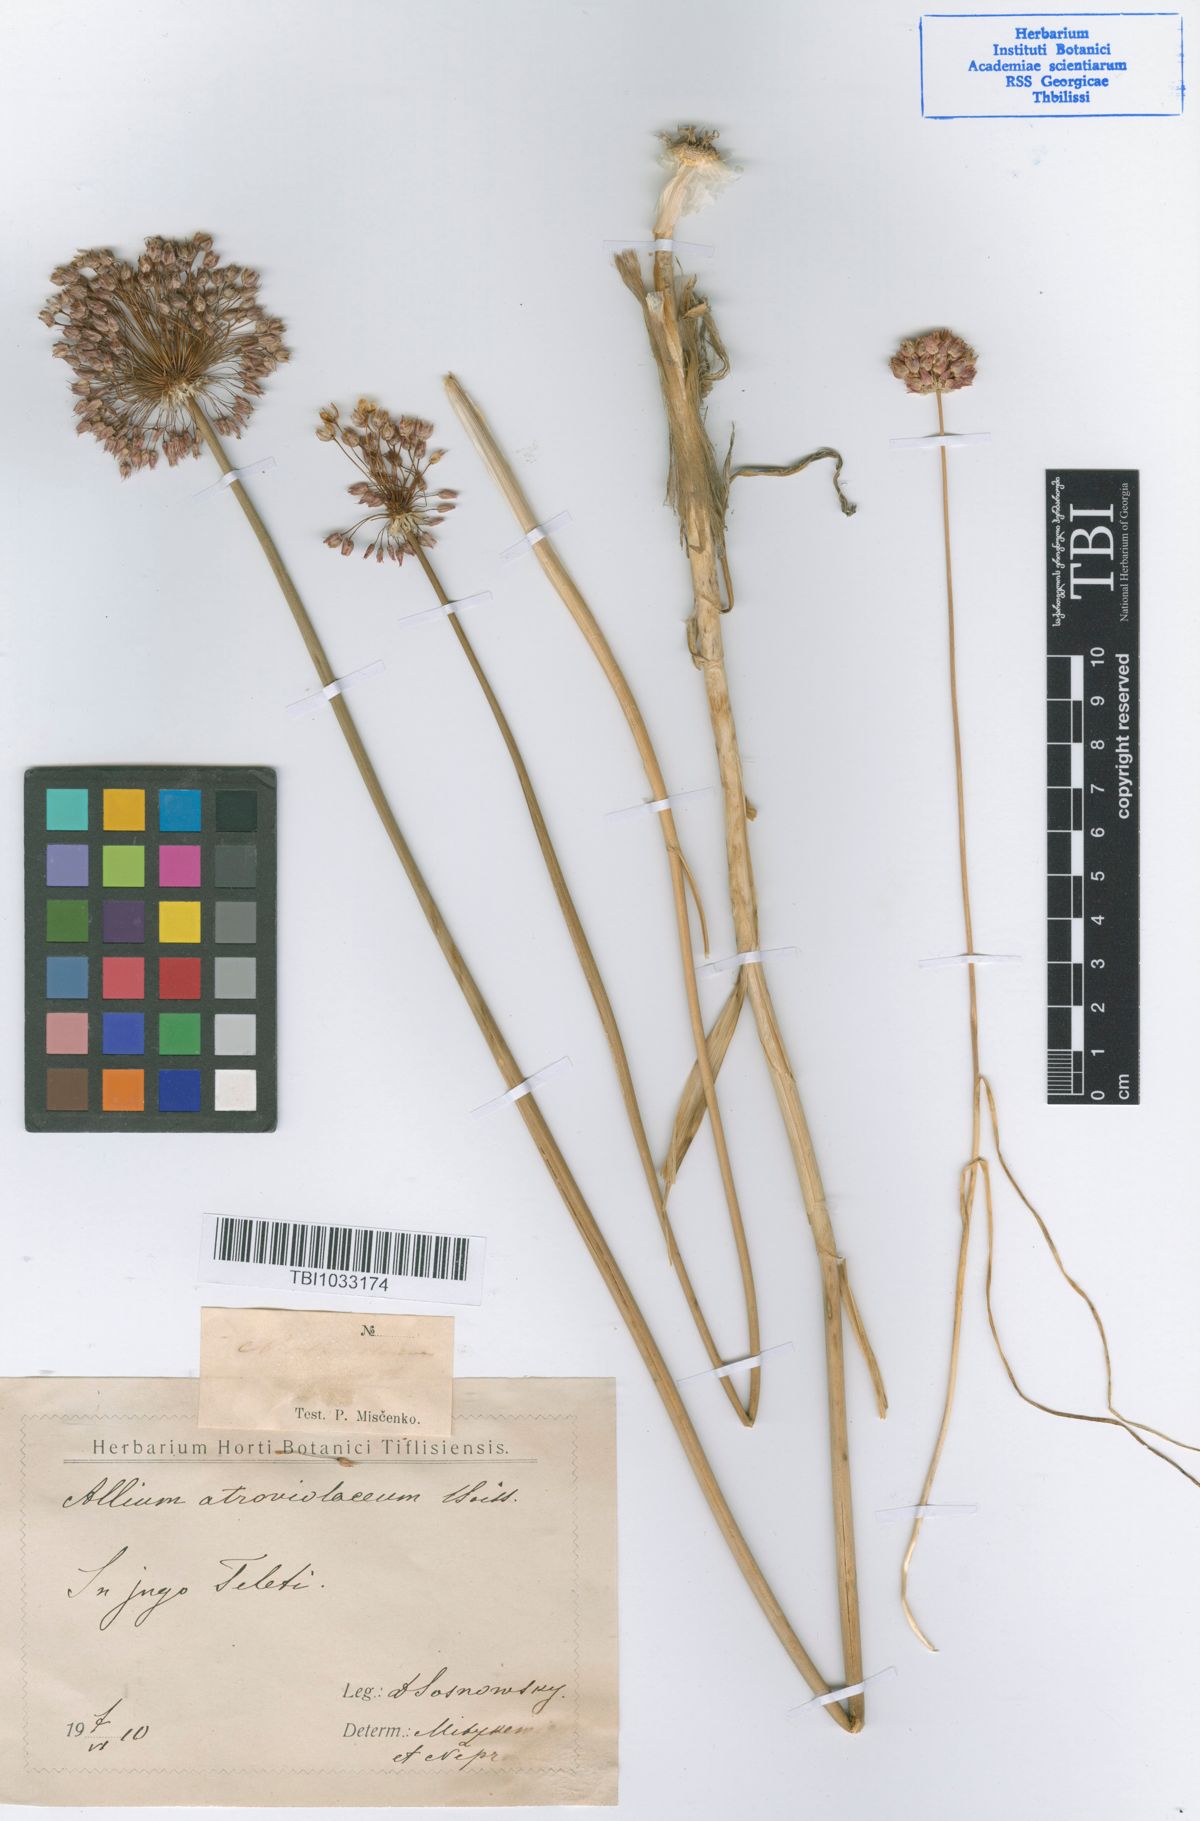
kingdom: Plantae
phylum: Tracheophyta
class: Liliopsida
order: Asparagales
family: Amaryllidaceae
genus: Allium
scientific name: Allium atroviolaceum
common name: Broadleaf wild leek
